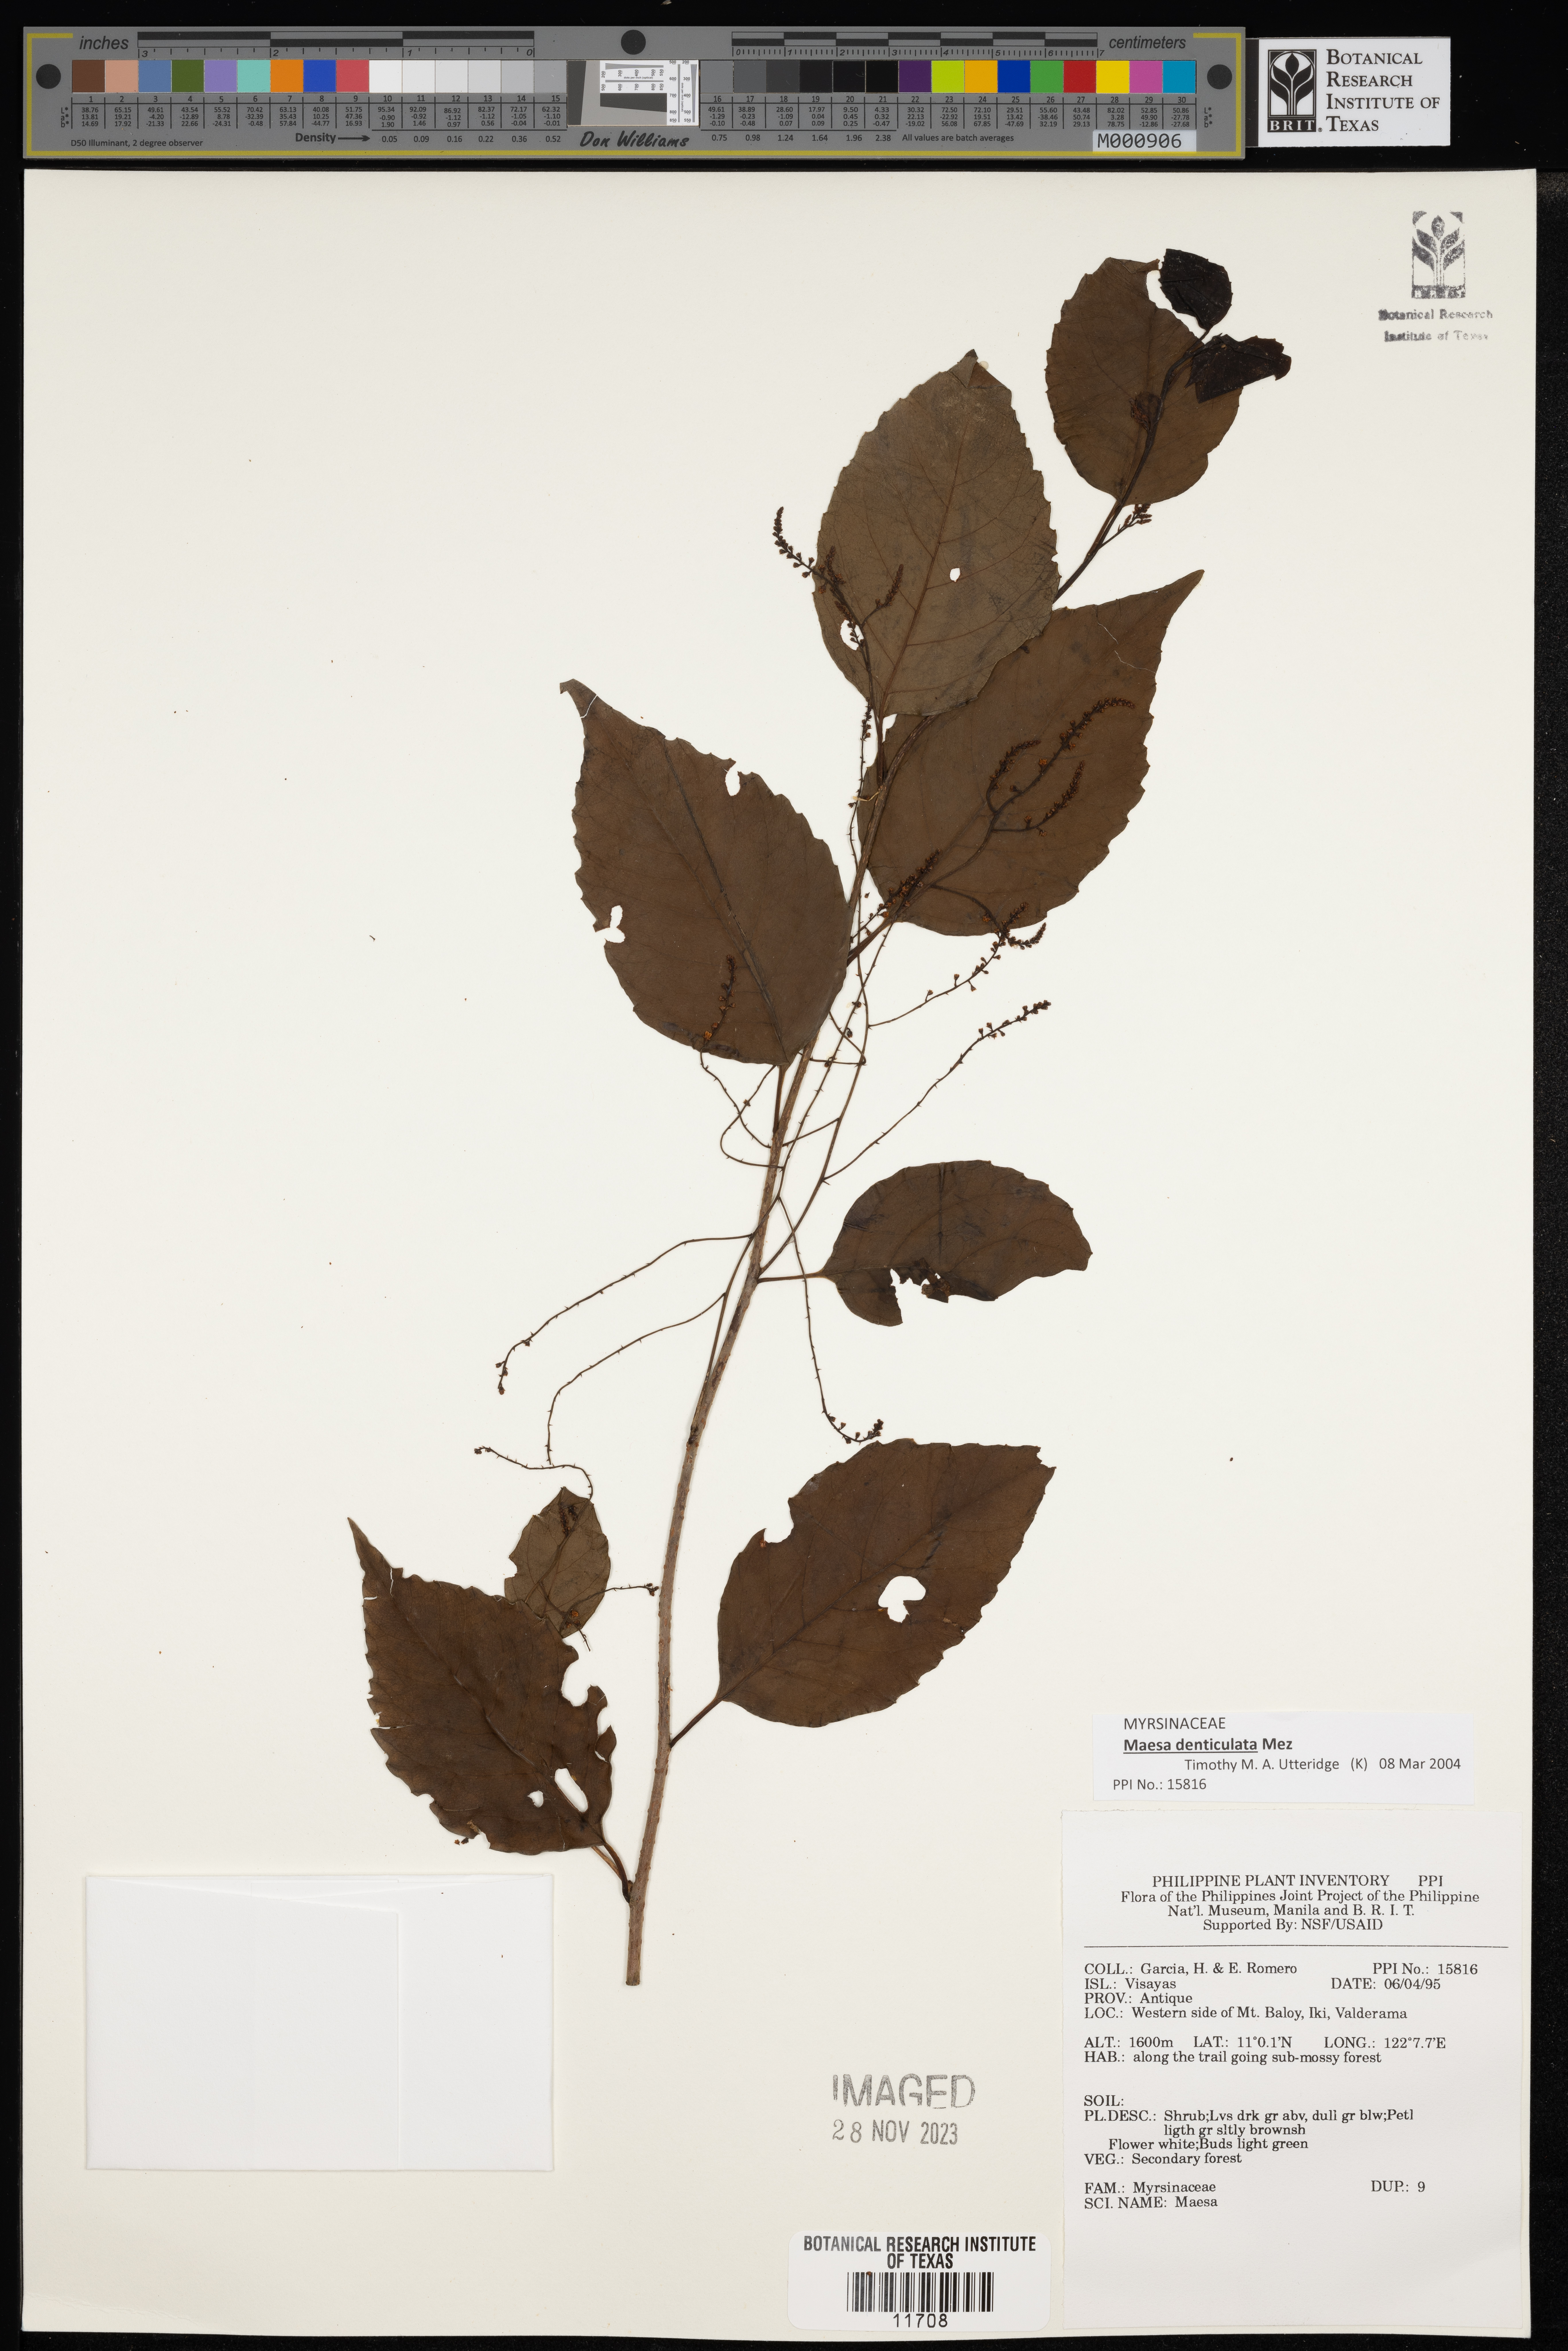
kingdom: Plantae
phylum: Tracheophyta
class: Magnoliopsida
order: Ericales
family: Primulaceae
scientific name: Primulaceae
